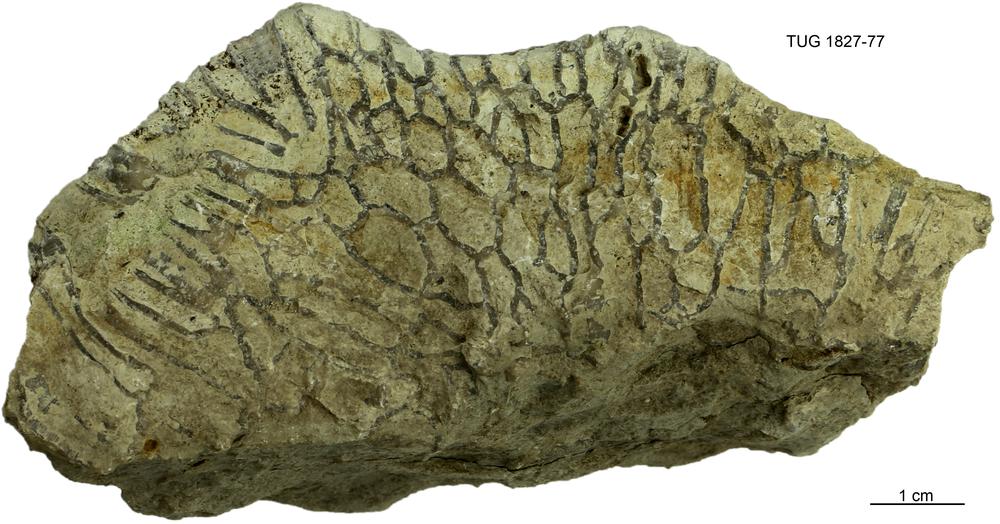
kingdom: Animalia
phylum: Cnidaria
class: Anthozoa
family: Cateniporidae
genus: Catenipora
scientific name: Catenipora
